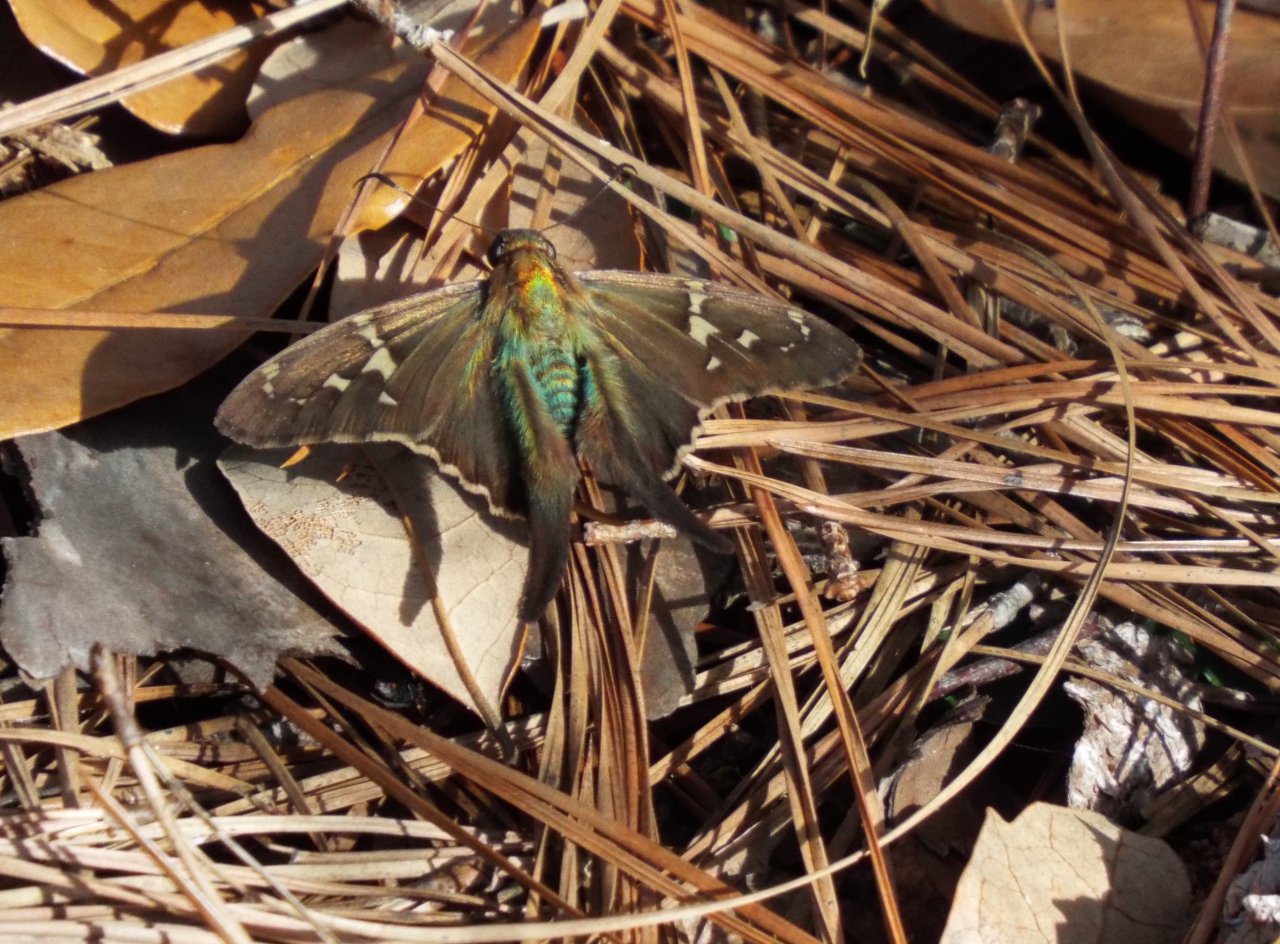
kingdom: Animalia
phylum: Arthropoda
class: Insecta
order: Lepidoptera
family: Hesperiidae
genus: Urbanus
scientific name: Urbanus proteus
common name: Long-tailed Skipper
